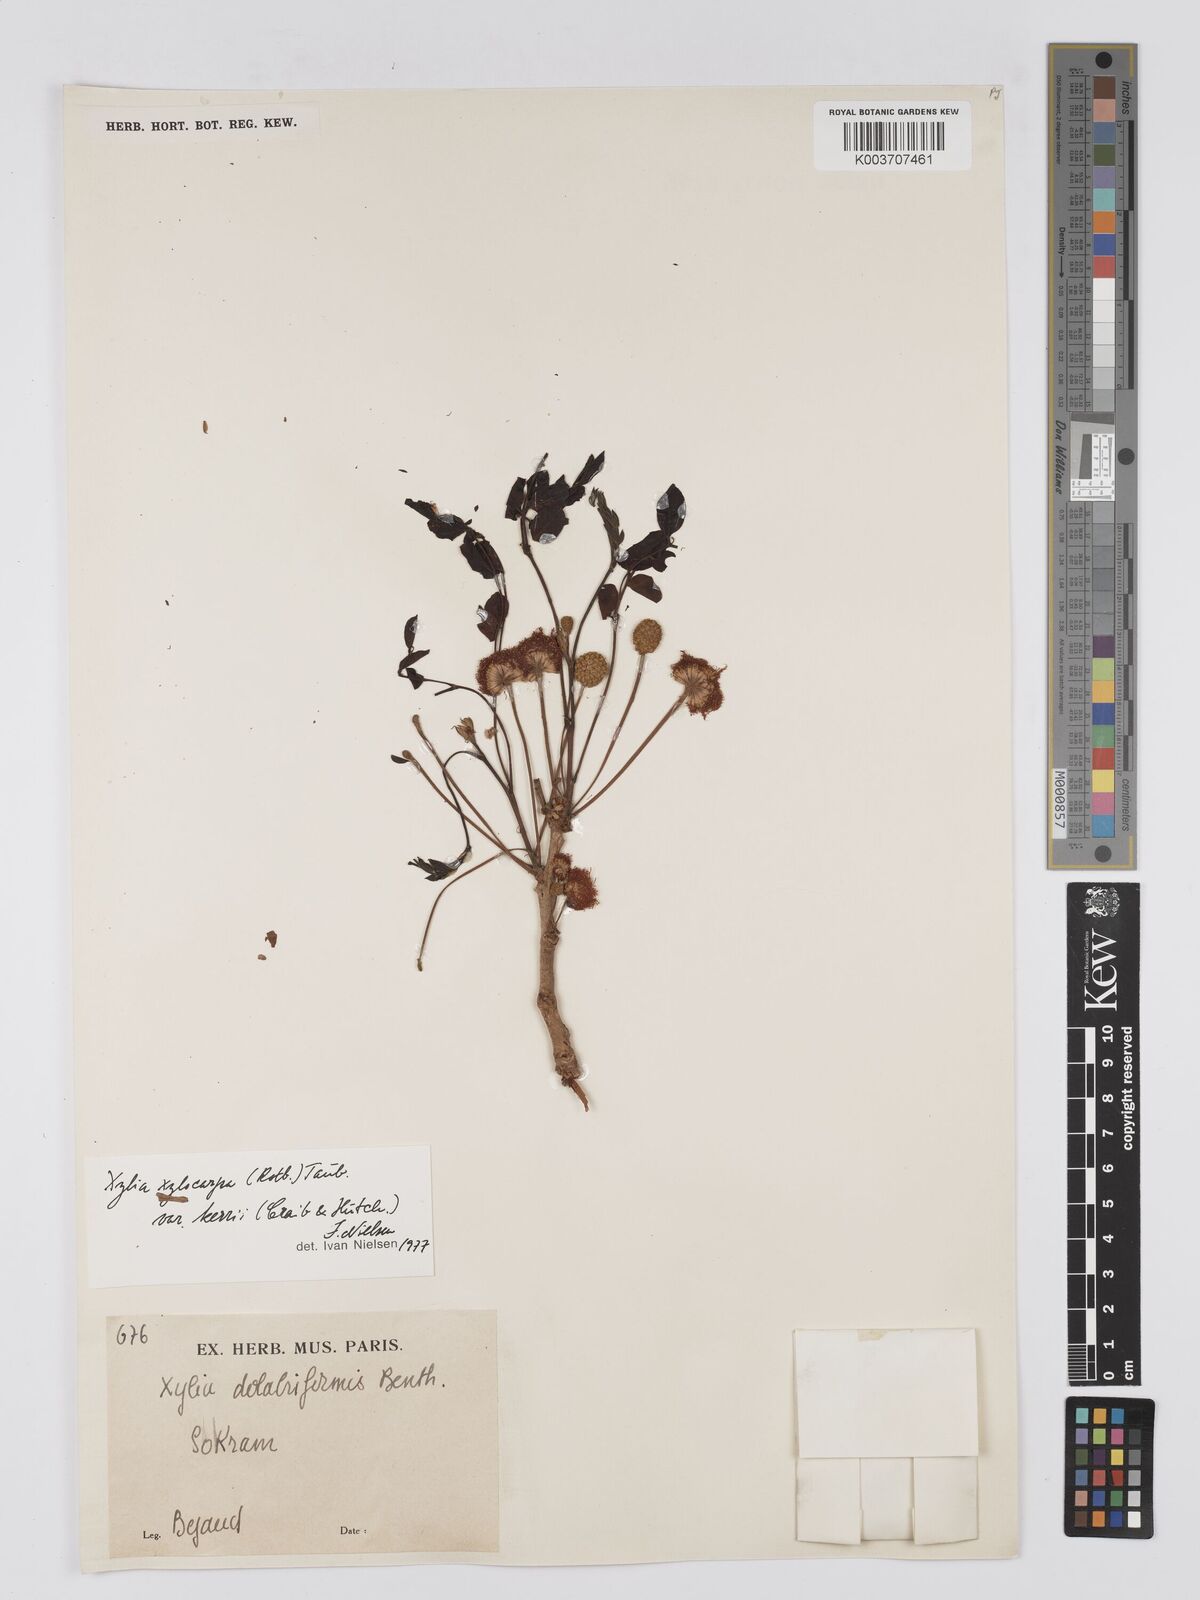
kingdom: Plantae
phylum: Tracheophyta
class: Magnoliopsida
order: Fabales
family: Fabaceae
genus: Xylia
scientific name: Xylia xylocarpa
